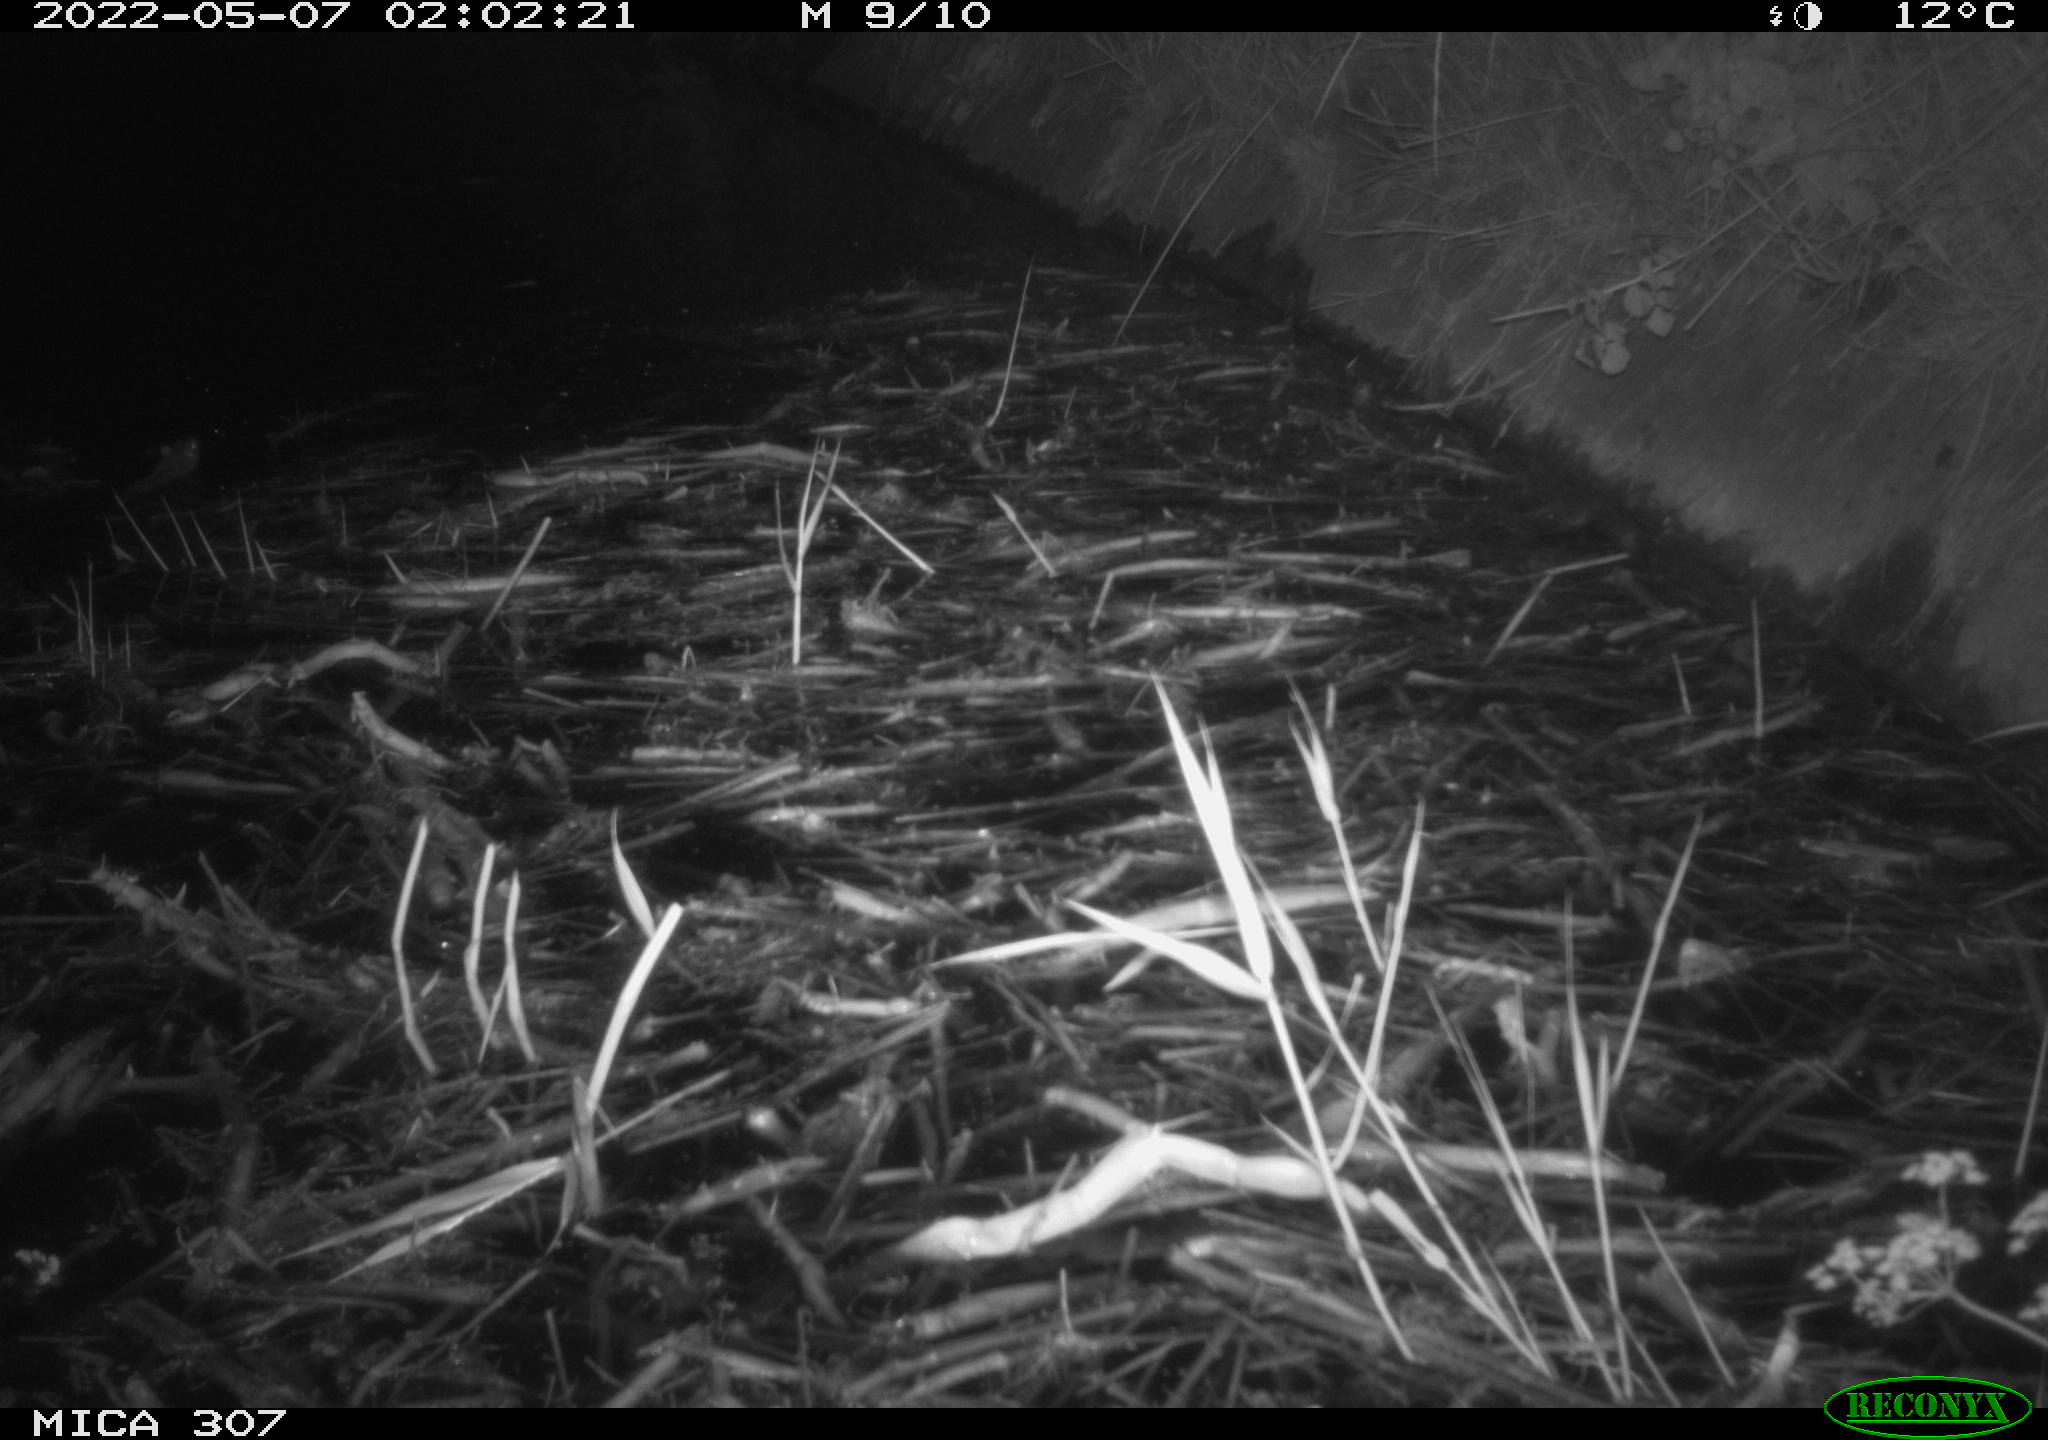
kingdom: Animalia
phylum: Chordata
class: Mammalia
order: Rodentia
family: Cricetidae
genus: Ondatra
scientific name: Ondatra zibethicus
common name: Muskrat
